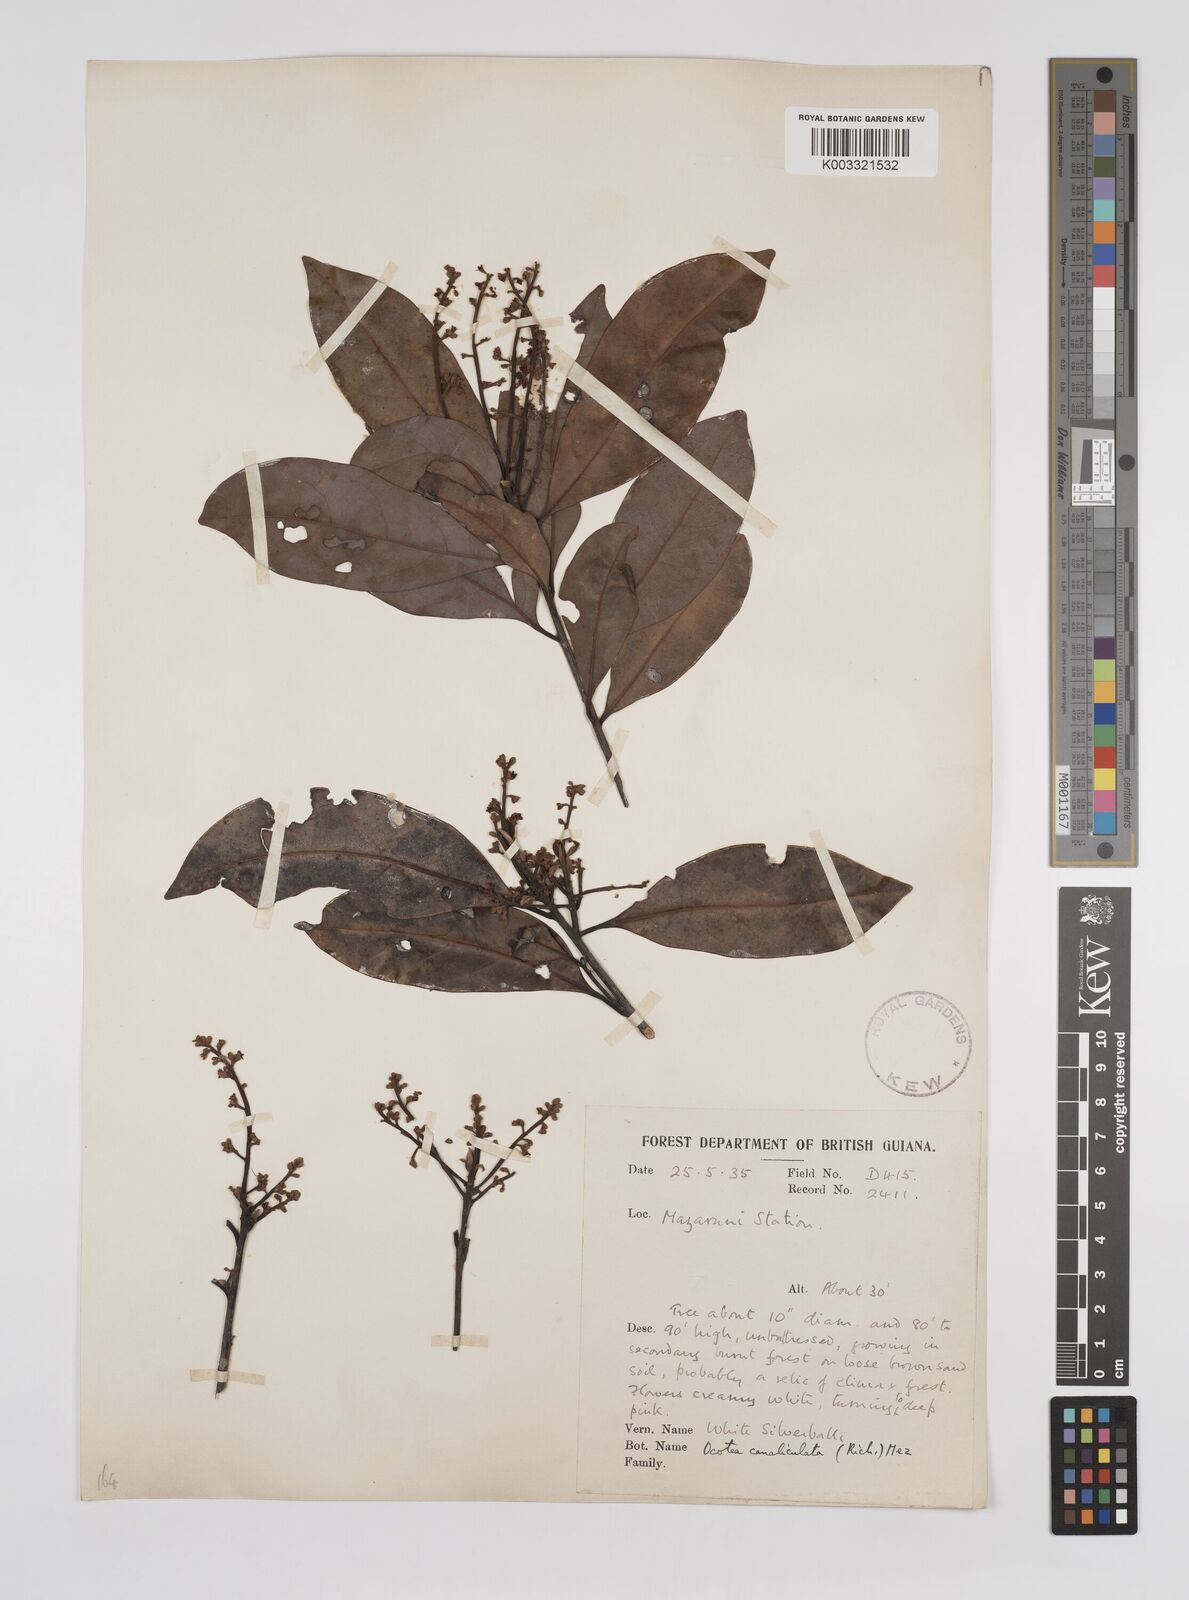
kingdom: Plantae
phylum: Tracheophyta
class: Magnoliopsida
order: Laurales
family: Lauraceae
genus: Ocotea
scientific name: Ocotea canaliculata
